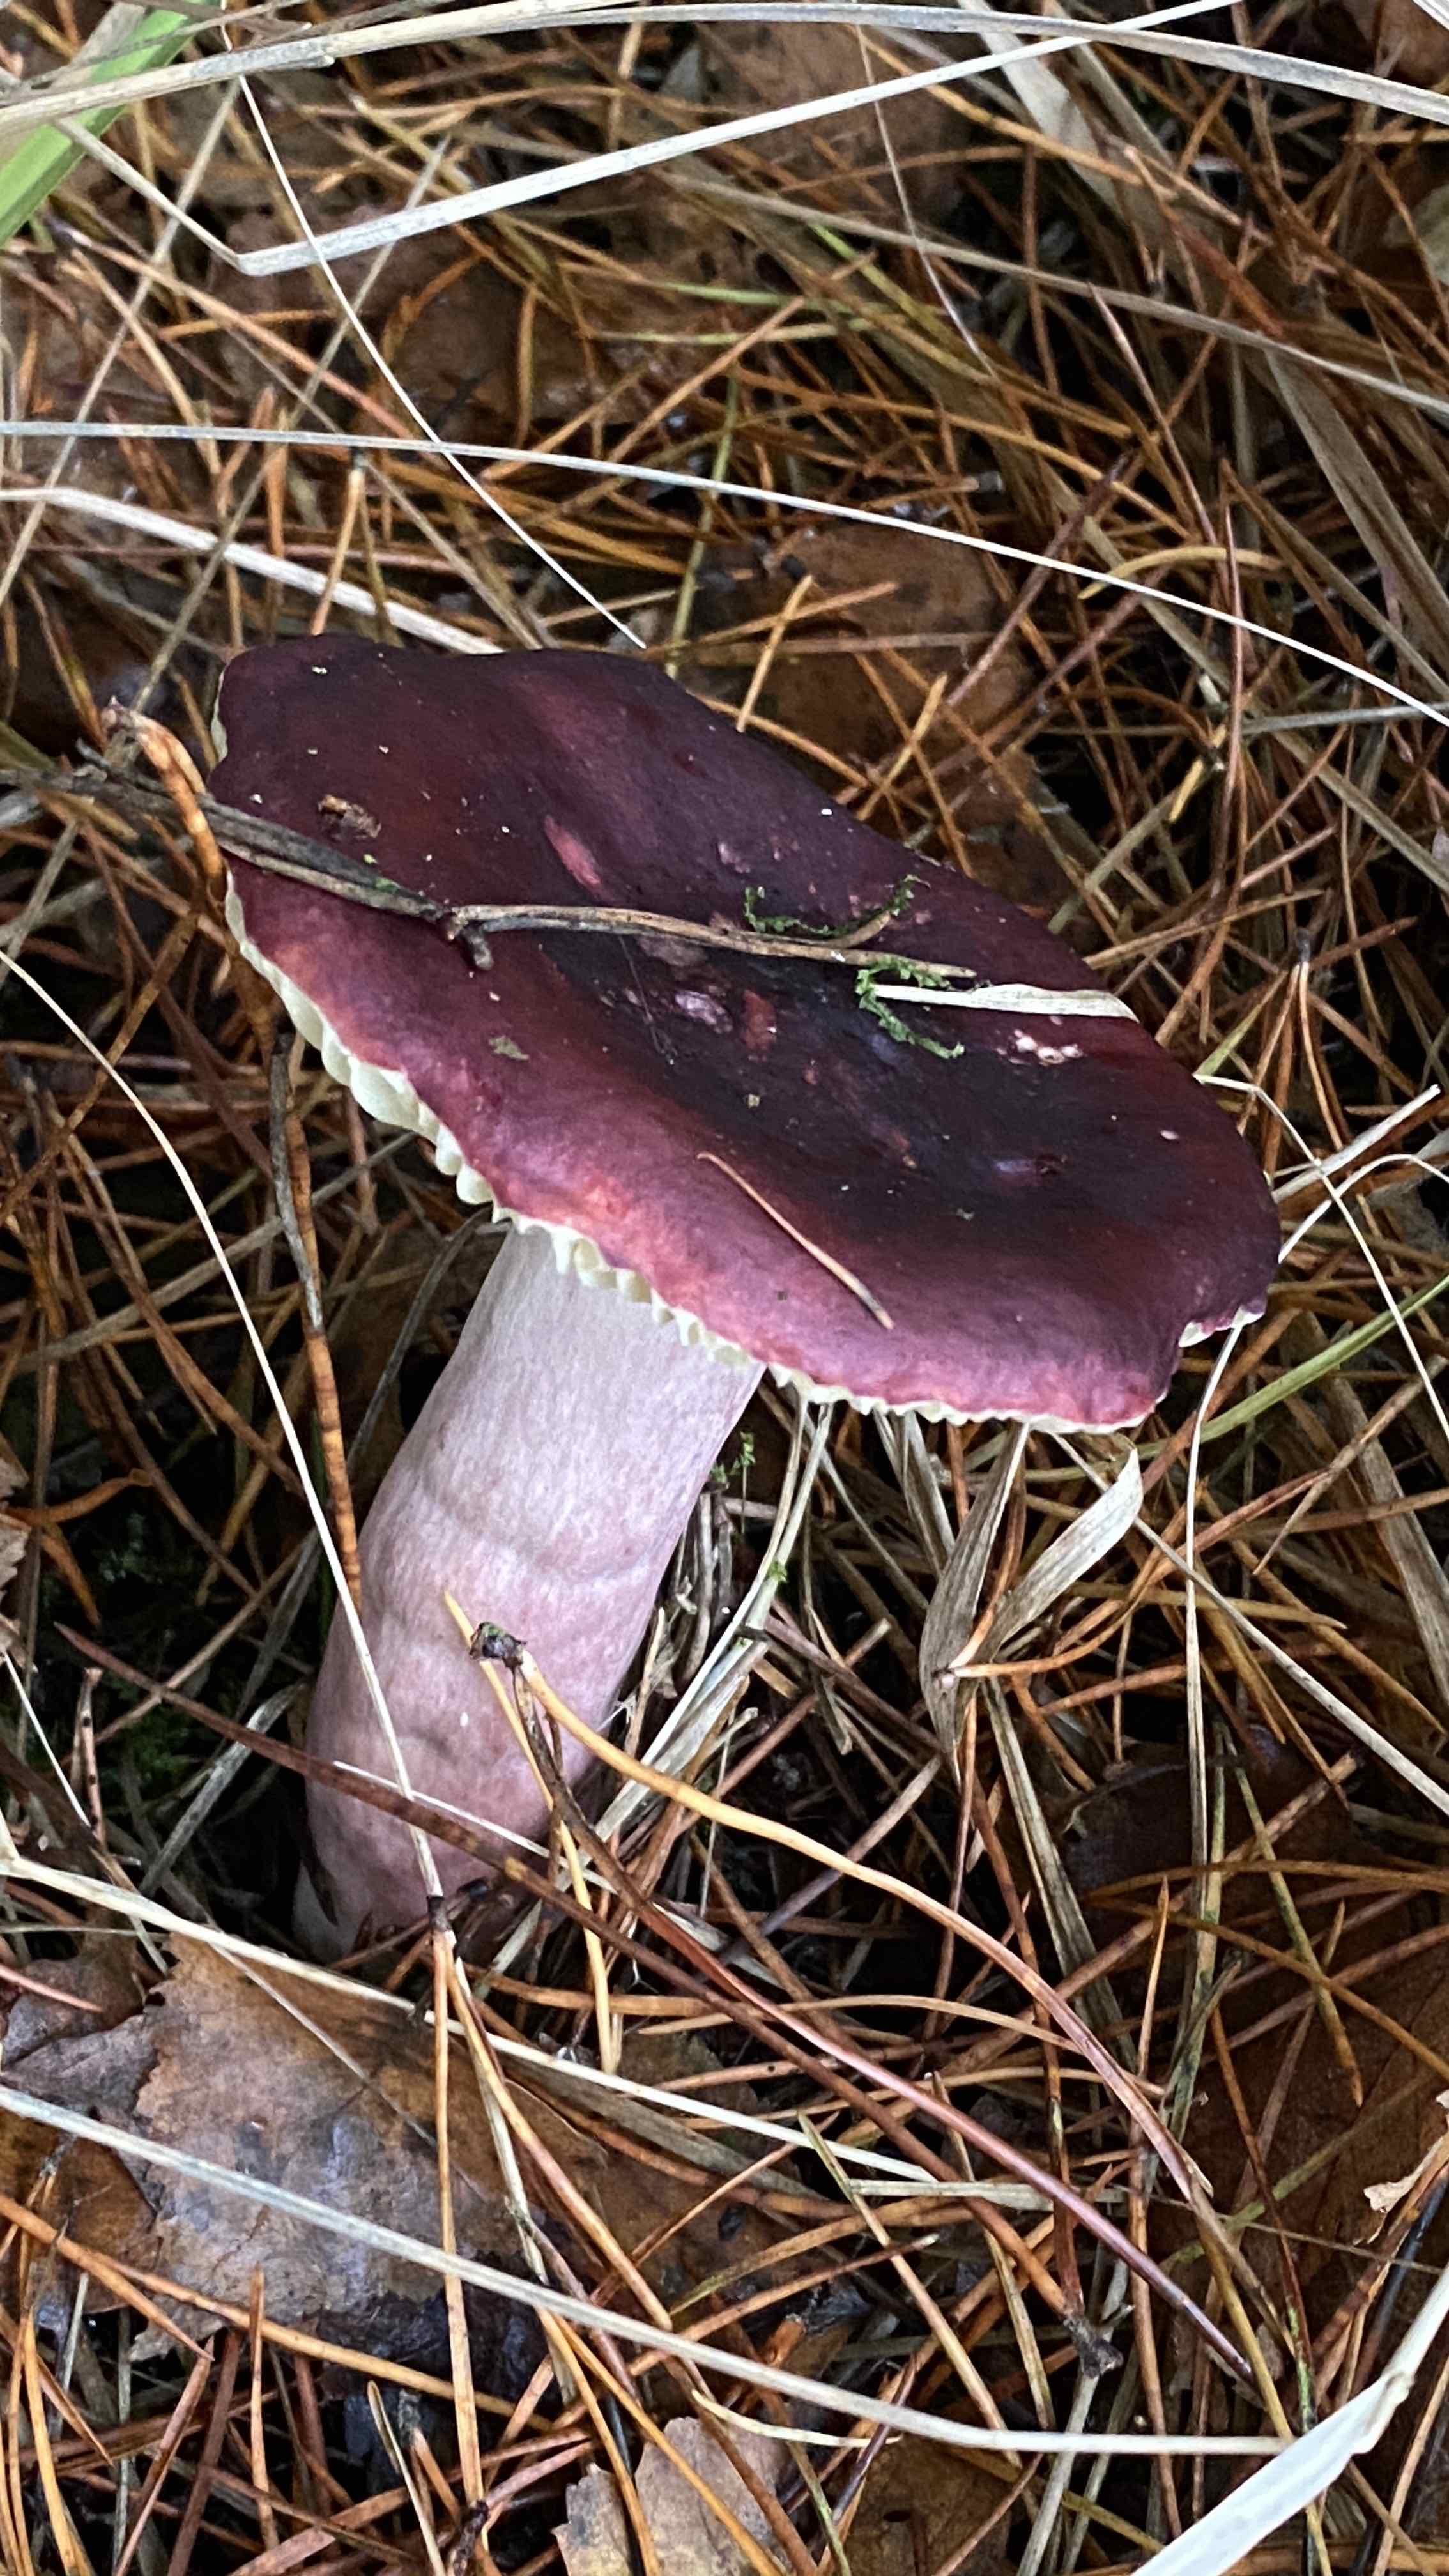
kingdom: Fungi
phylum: Basidiomycota
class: Agaricomycetes
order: Russulales
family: Russulaceae
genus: Russula
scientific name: Russula sardonia
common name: citronbladet skørhat
